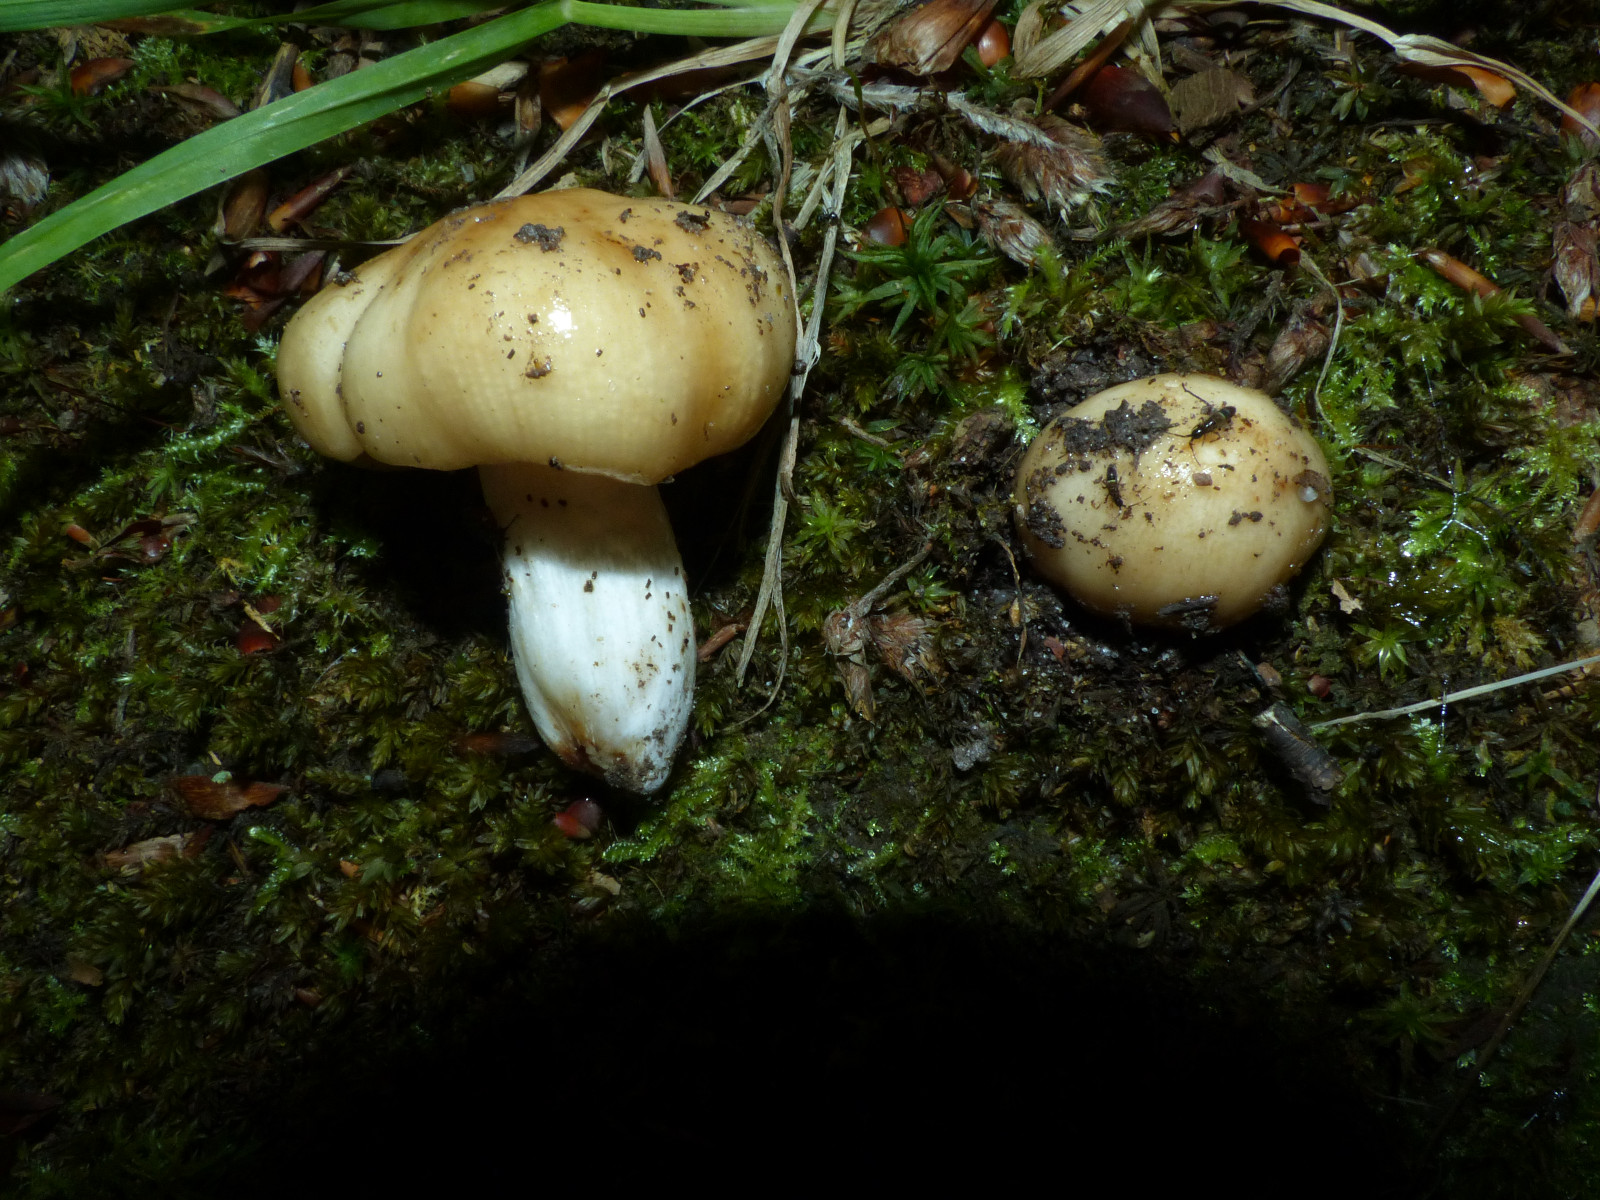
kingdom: Fungi
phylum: Basidiomycota
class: Agaricomycetes
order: Russulales
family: Russulaceae
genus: Russula
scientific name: Russula grata
